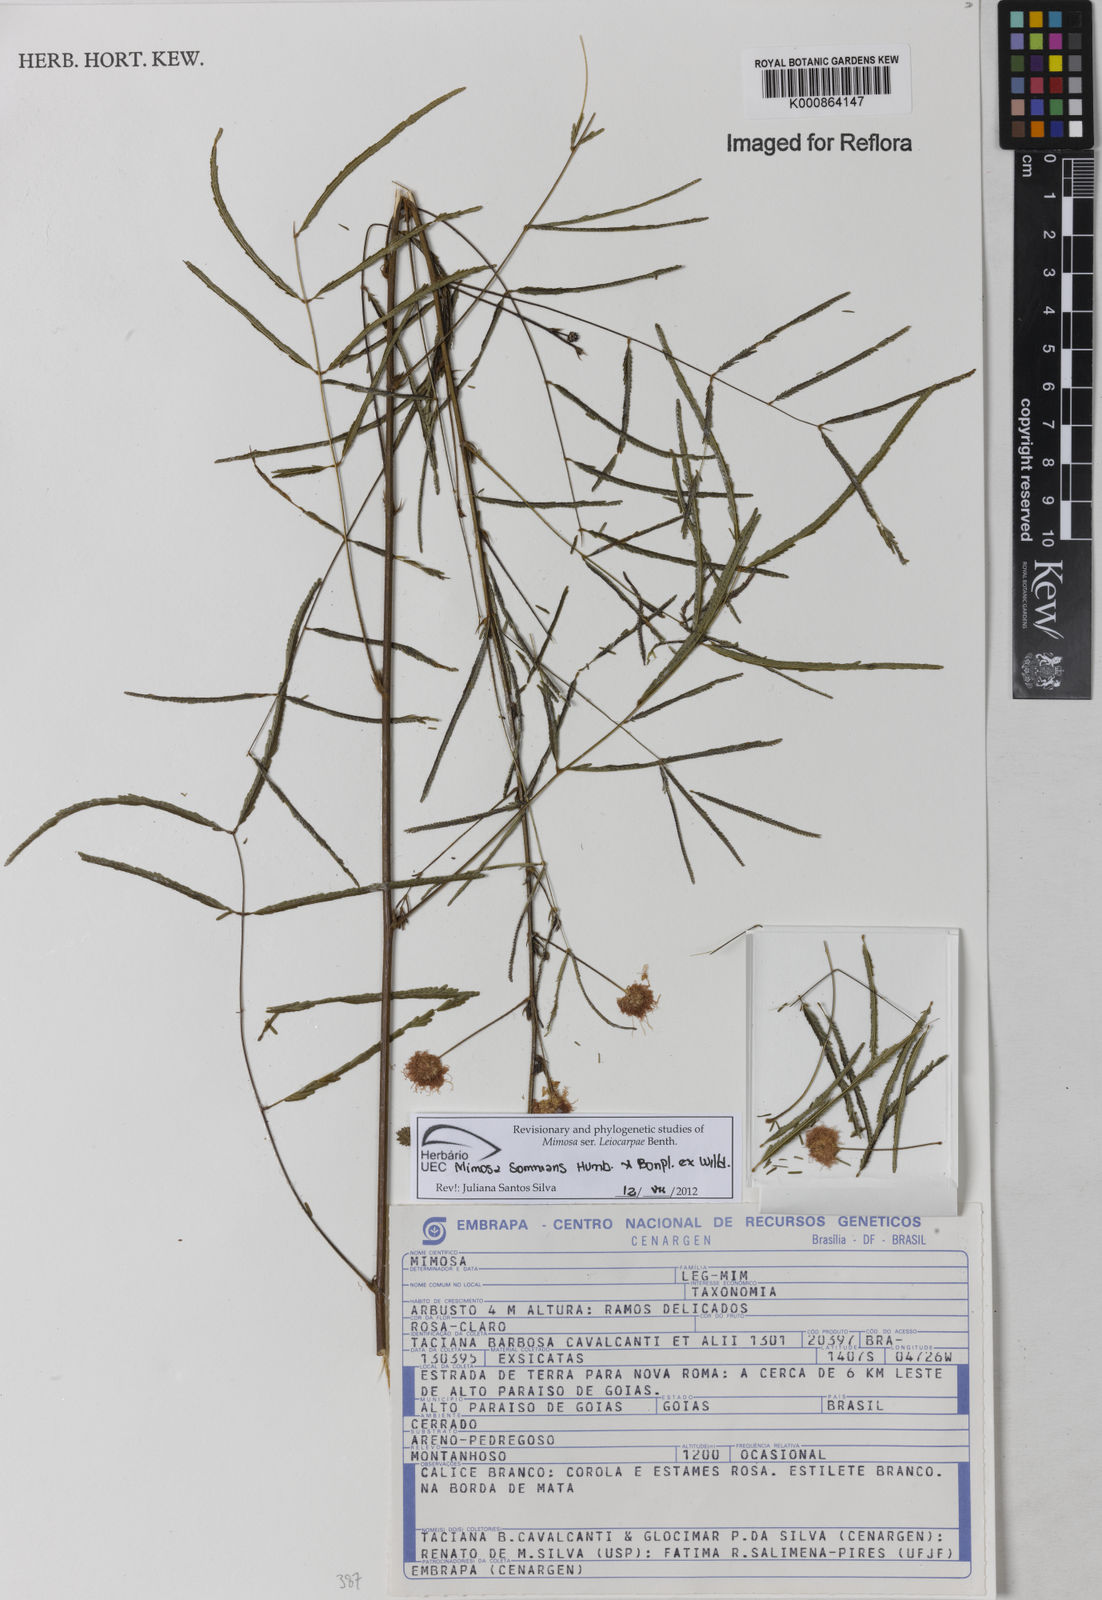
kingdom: Plantae
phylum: Tracheophyta
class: Magnoliopsida
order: Fabales
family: Fabaceae
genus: Mimosa
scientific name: Mimosa somnians
